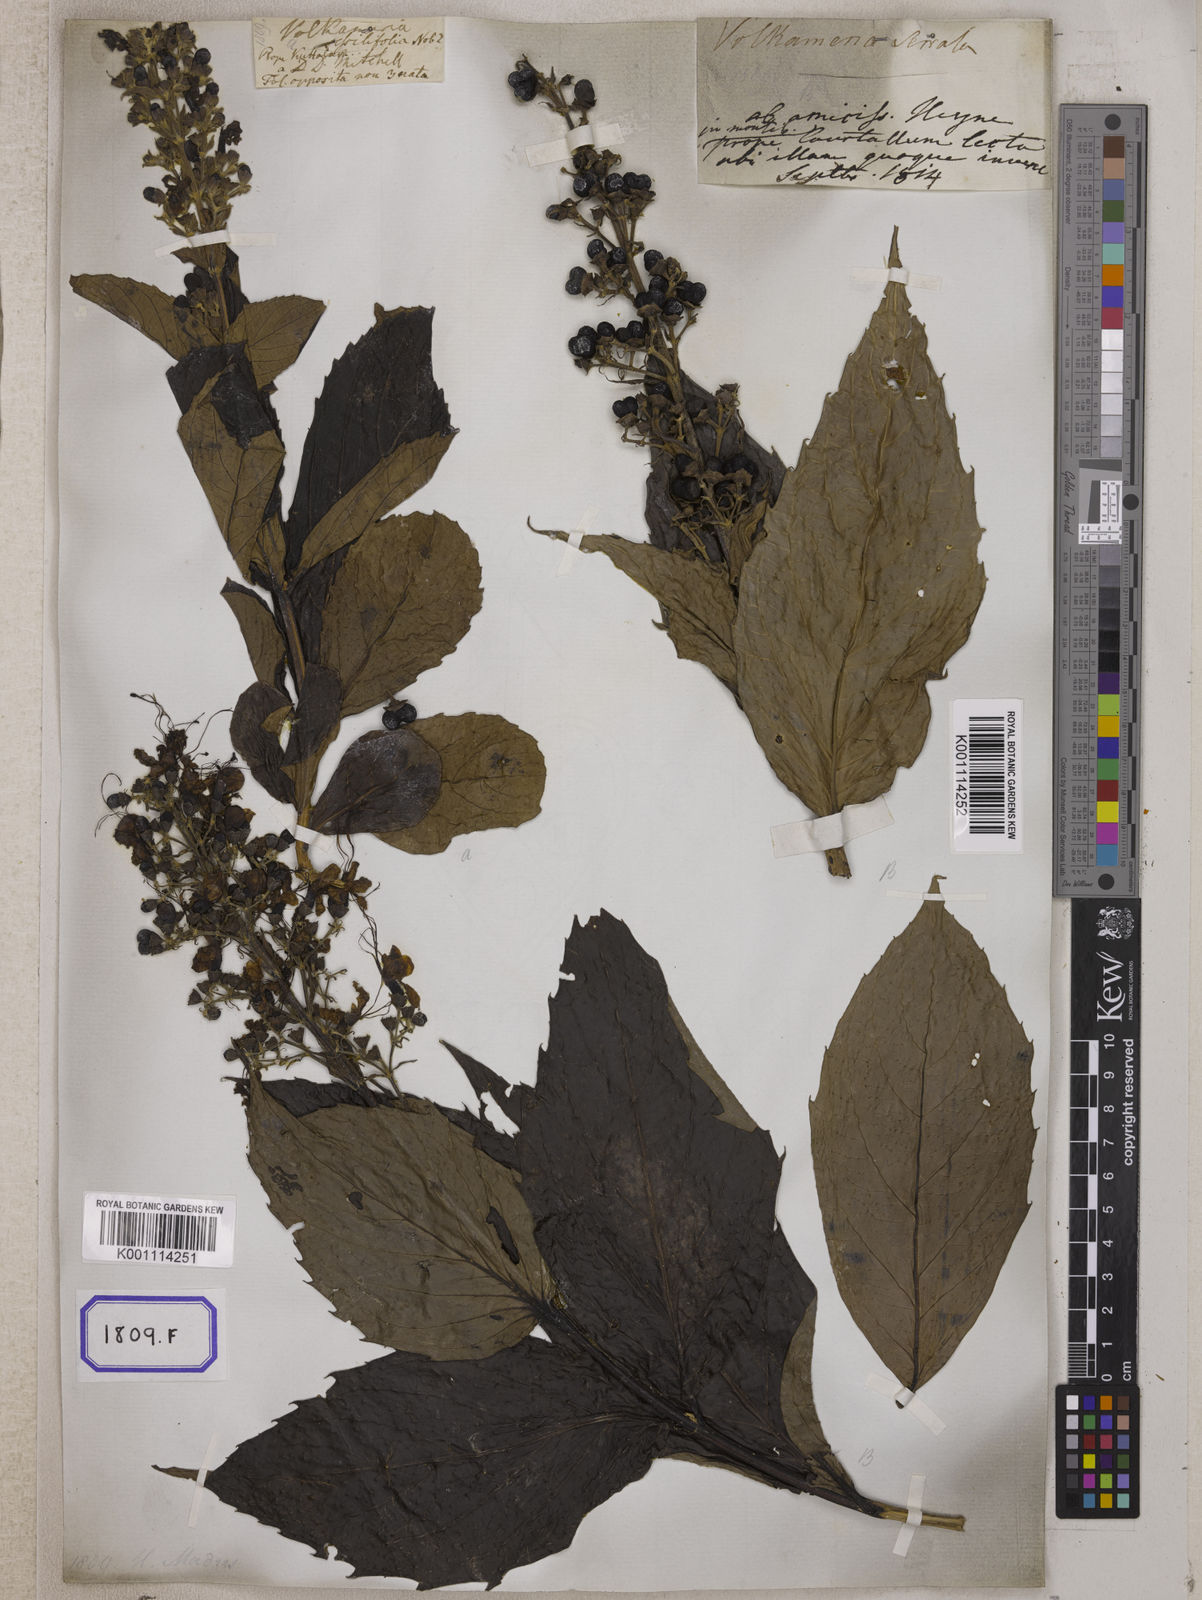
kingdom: Plantae
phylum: Tracheophyta
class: Magnoliopsida
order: Lamiales
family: Lamiaceae
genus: Clerodendrum
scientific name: Clerodendrum
